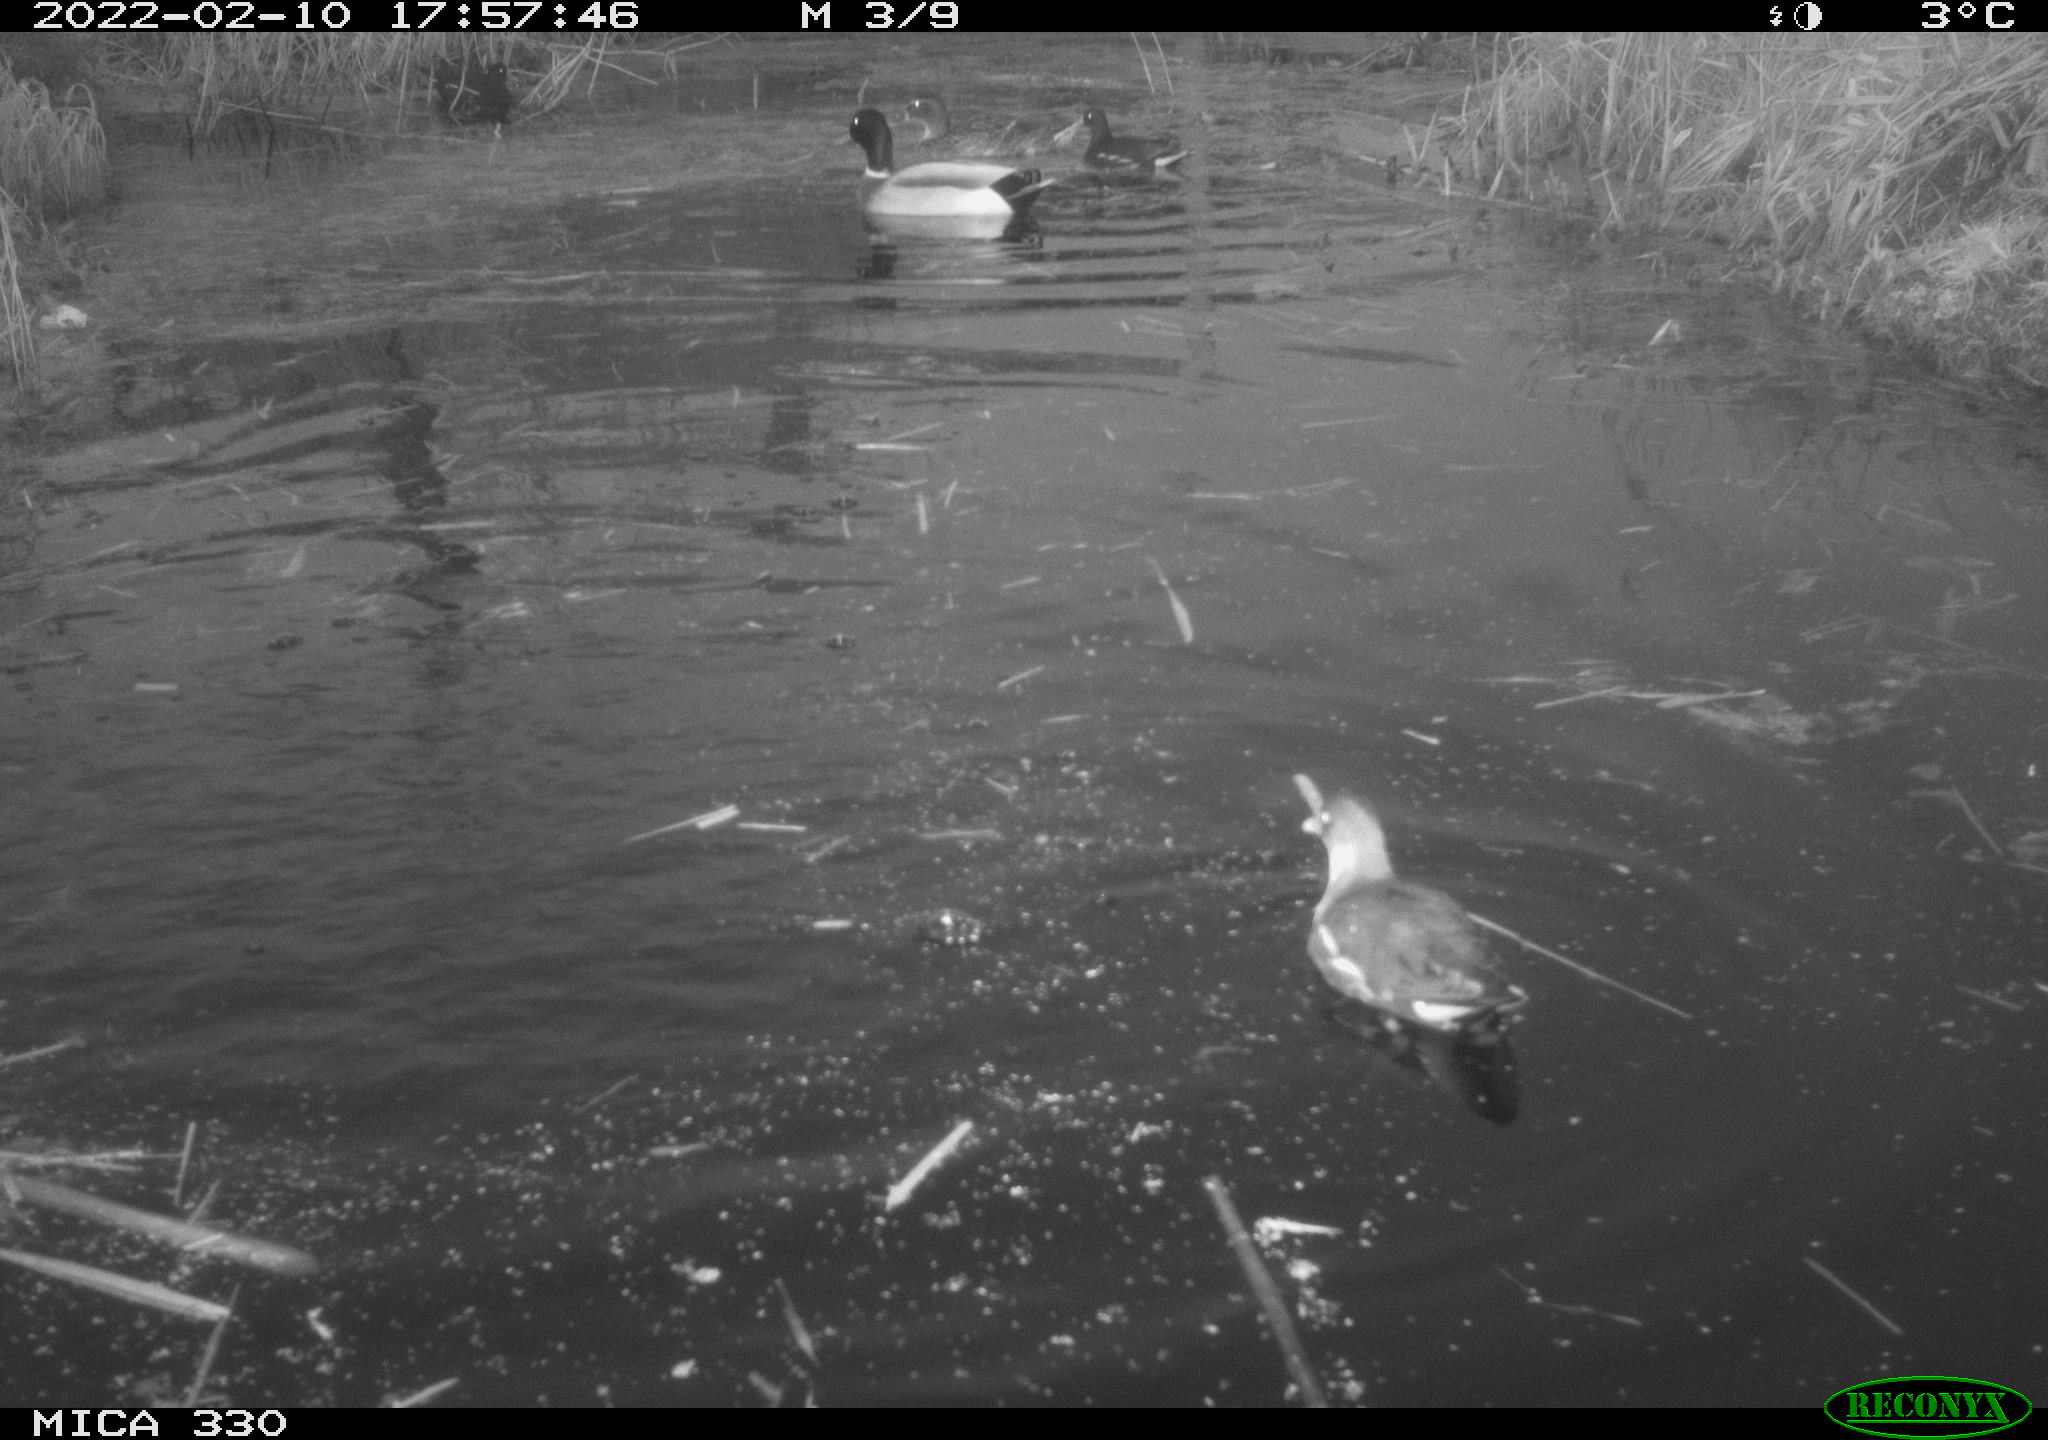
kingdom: Animalia
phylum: Chordata
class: Aves
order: Gruiformes
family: Rallidae
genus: Gallinula
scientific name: Gallinula chloropus
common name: Common moorhen
